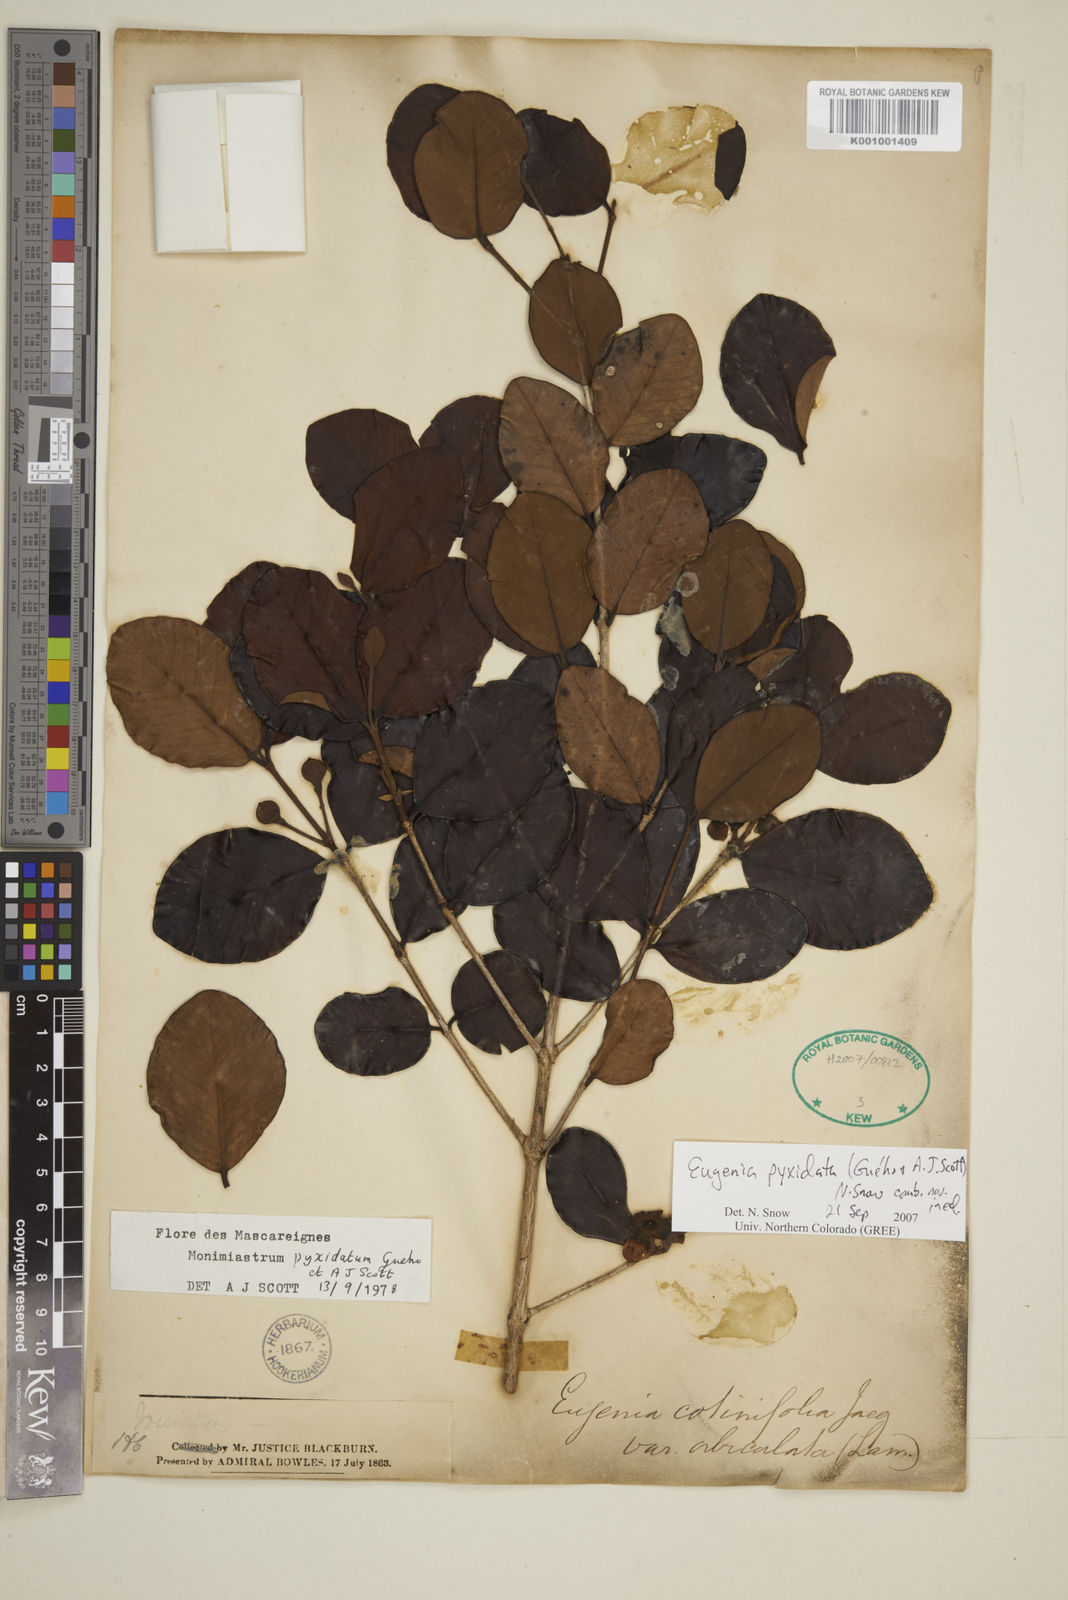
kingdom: Plantae
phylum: Tracheophyta
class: Magnoliopsida
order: Myrtales
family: Myrtaceae
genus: Eugenia
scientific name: Eugenia pyxidata
